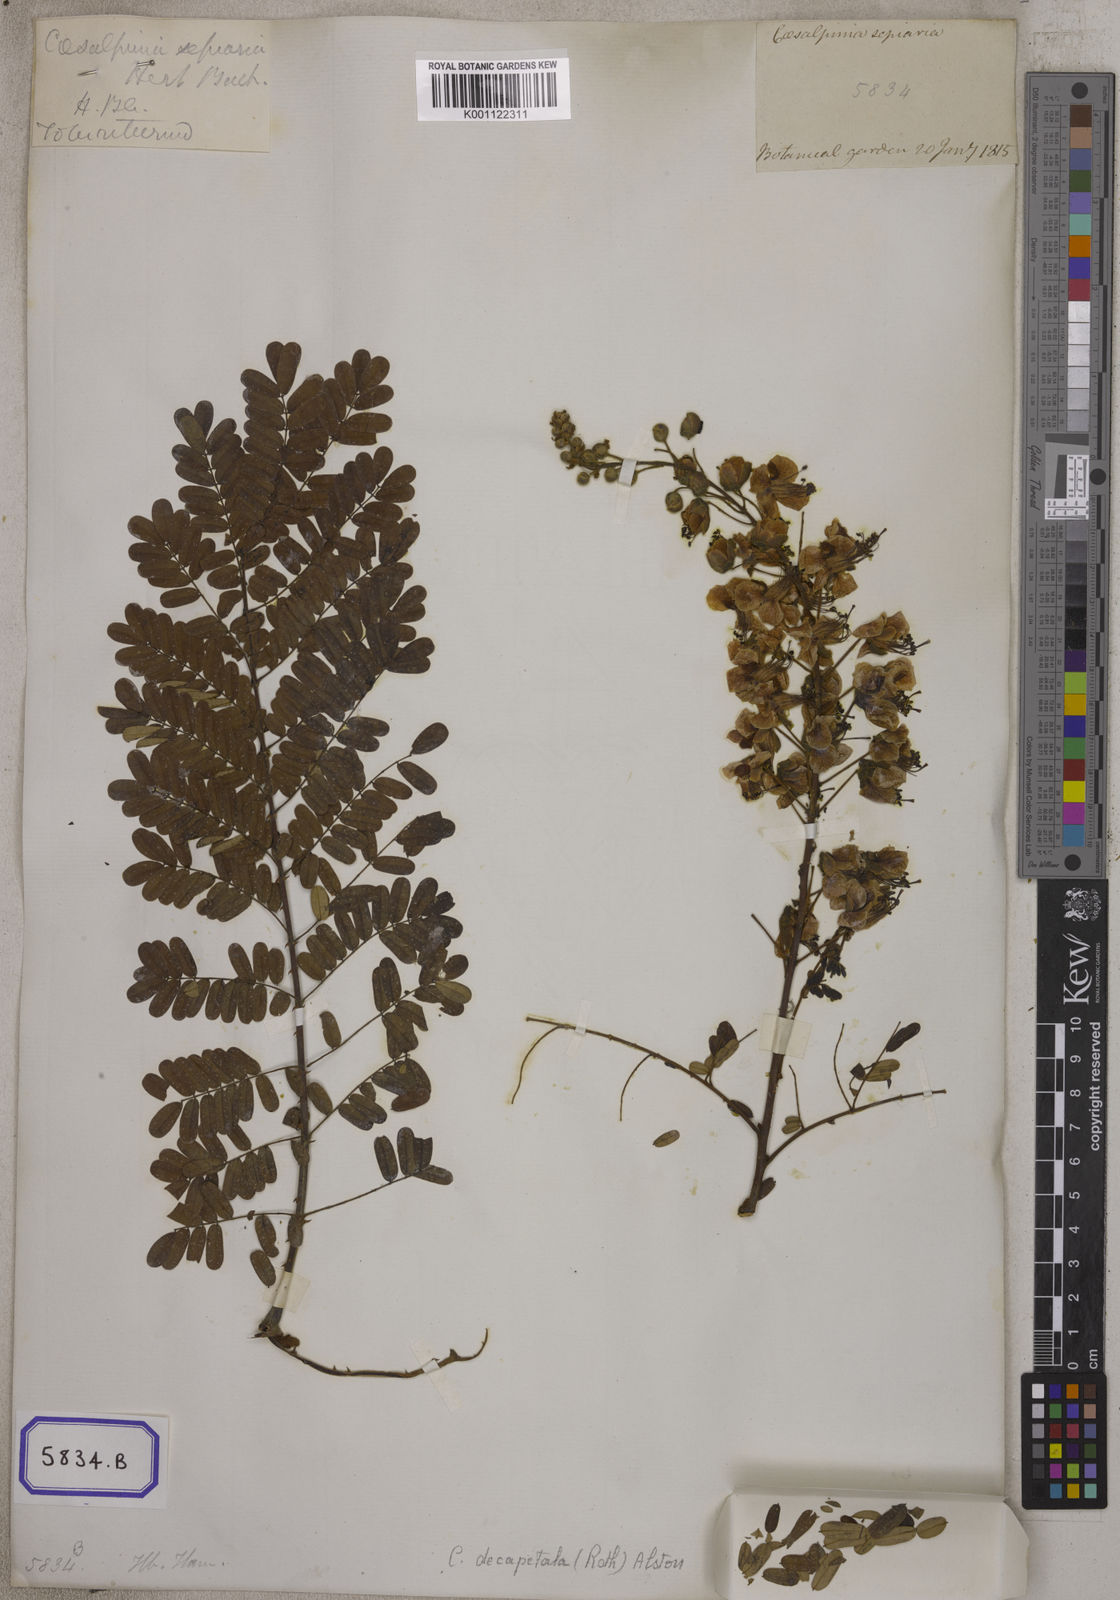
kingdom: Plantae
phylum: Tracheophyta
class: Magnoliopsida
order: Fabales
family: Fabaceae
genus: Caesalpinia
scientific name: Caesalpinia
